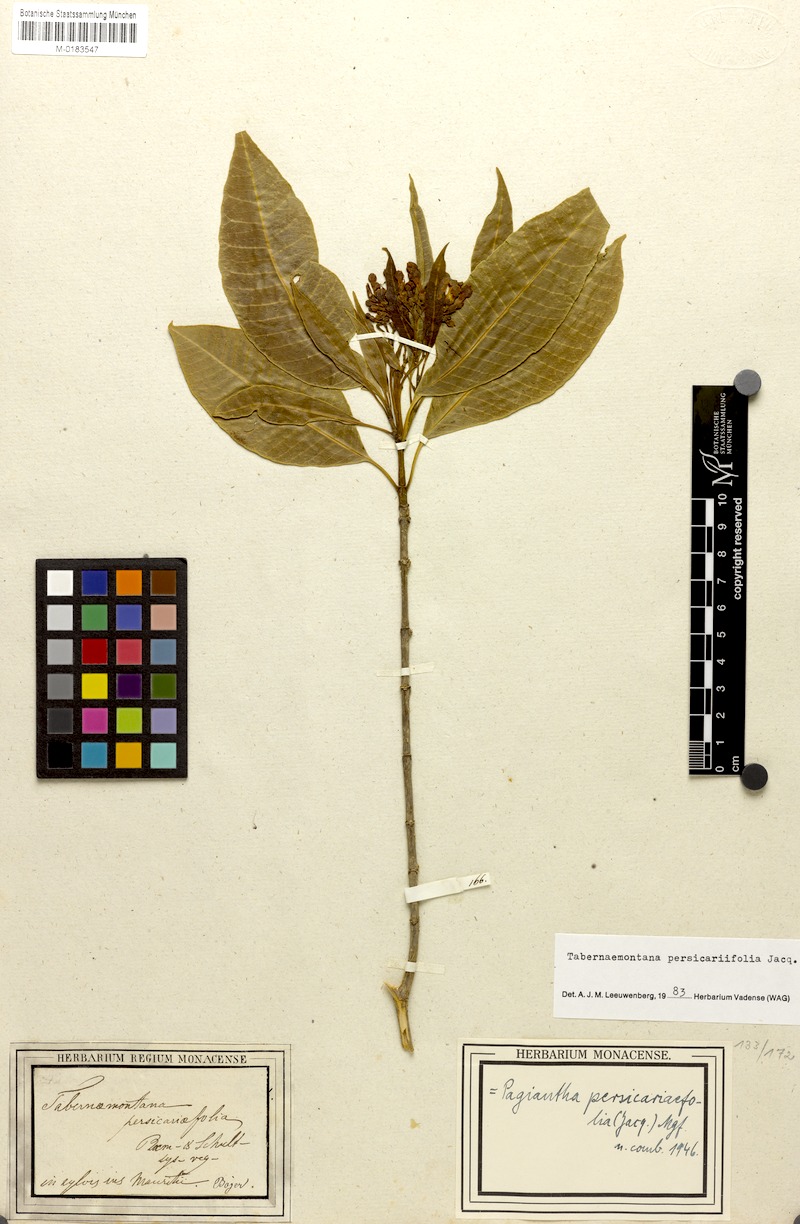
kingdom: Plantae
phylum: Tracheophyta
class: Magnoliopsida
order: Gentianales
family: Apocynaceae
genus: Tabernaemontana
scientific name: Tabernaemontana persicariifolia
